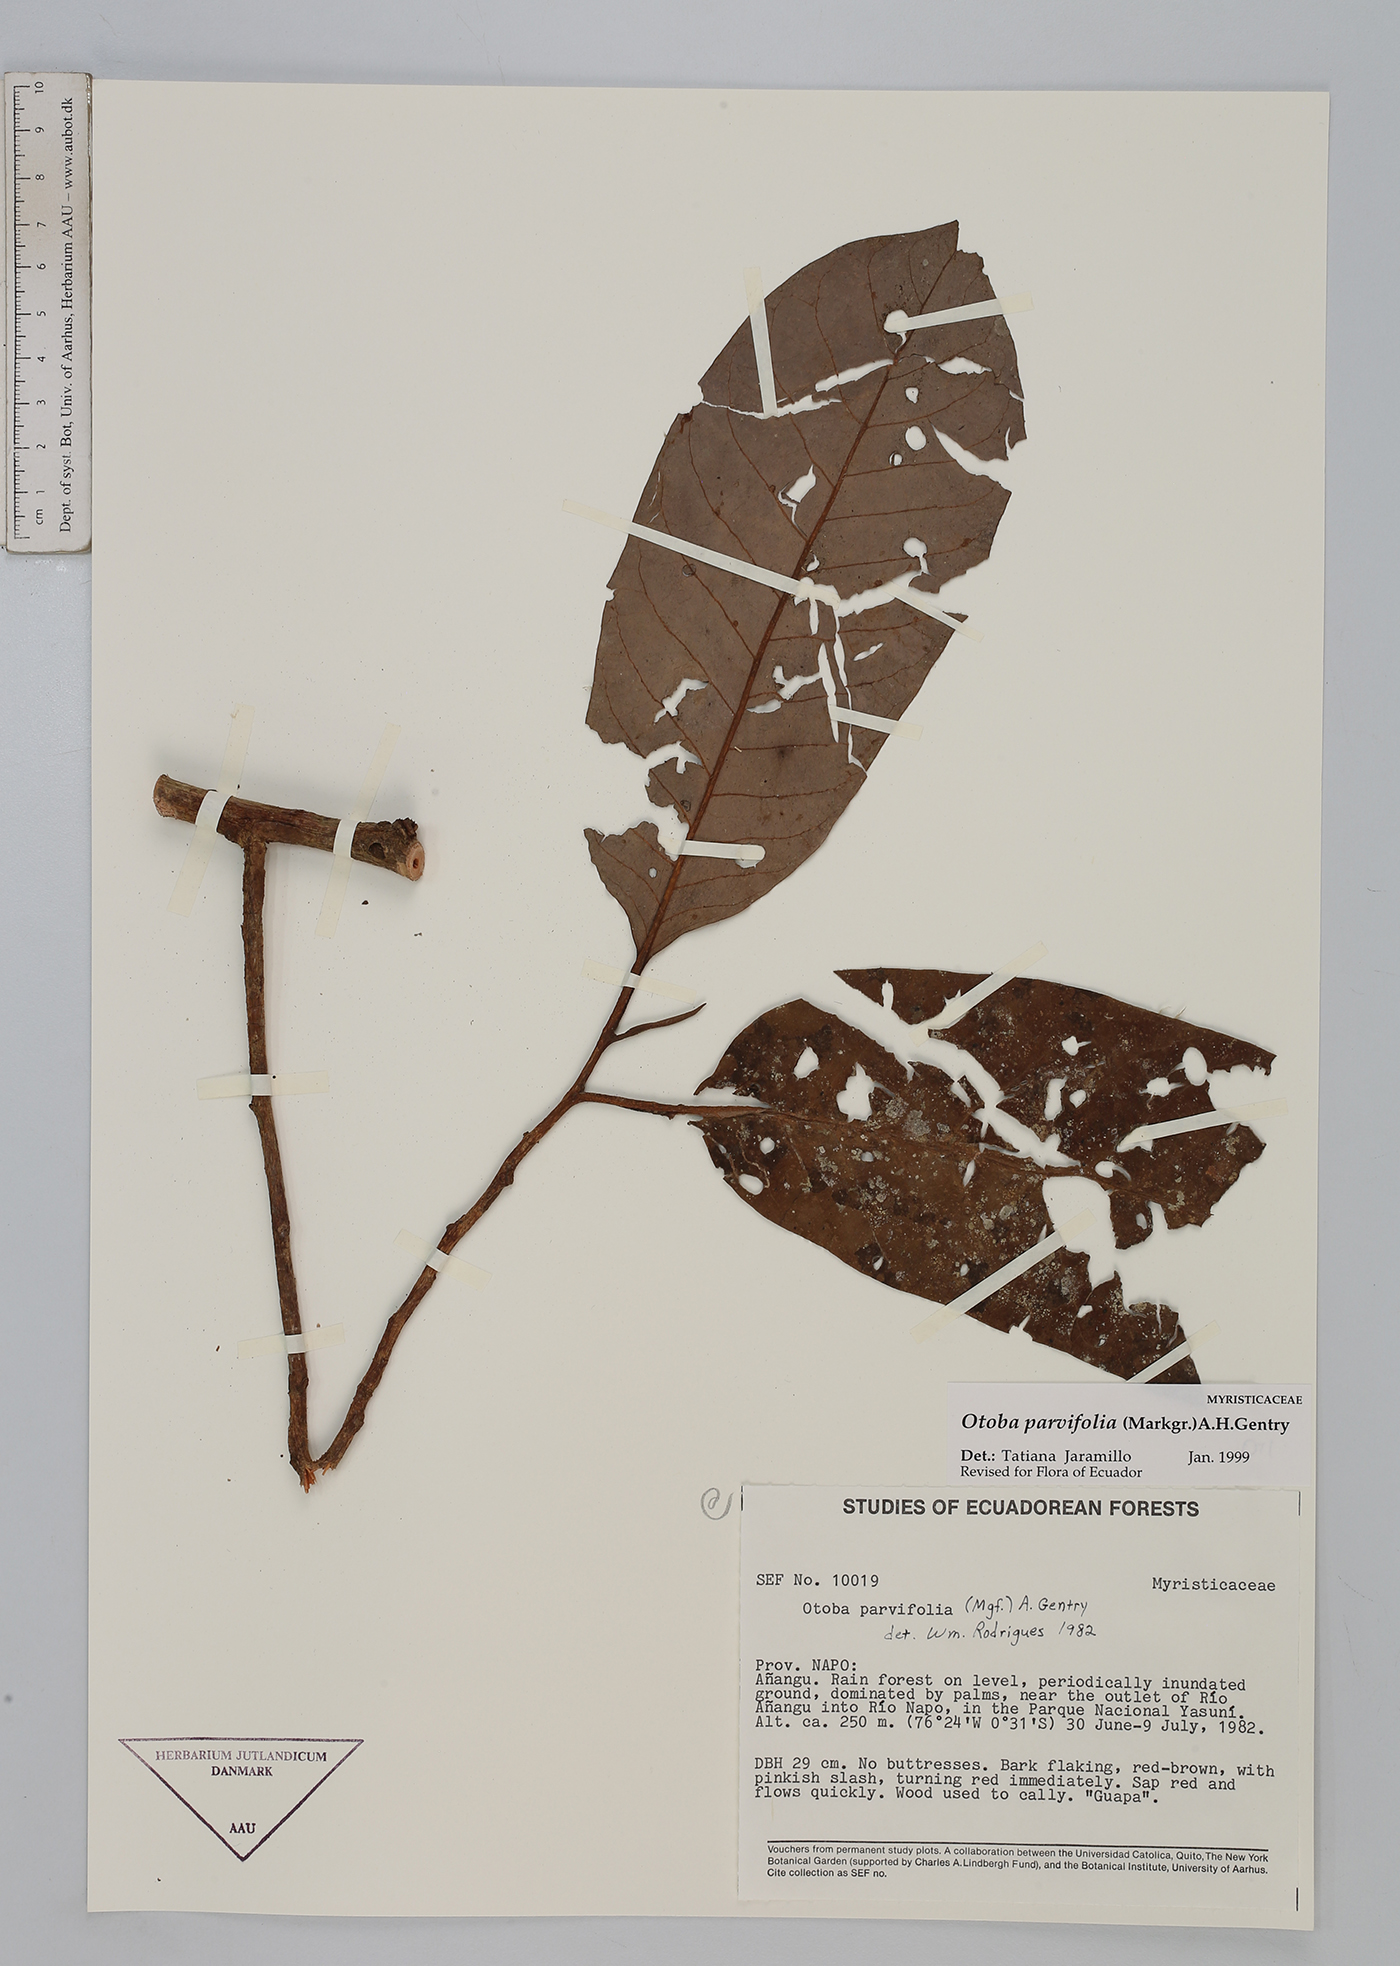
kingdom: Plantae
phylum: Tracheophyta
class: Magnoliopsida
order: Magnoliales
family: Myristicaceae
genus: Otoba
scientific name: Otoba parvifolia
